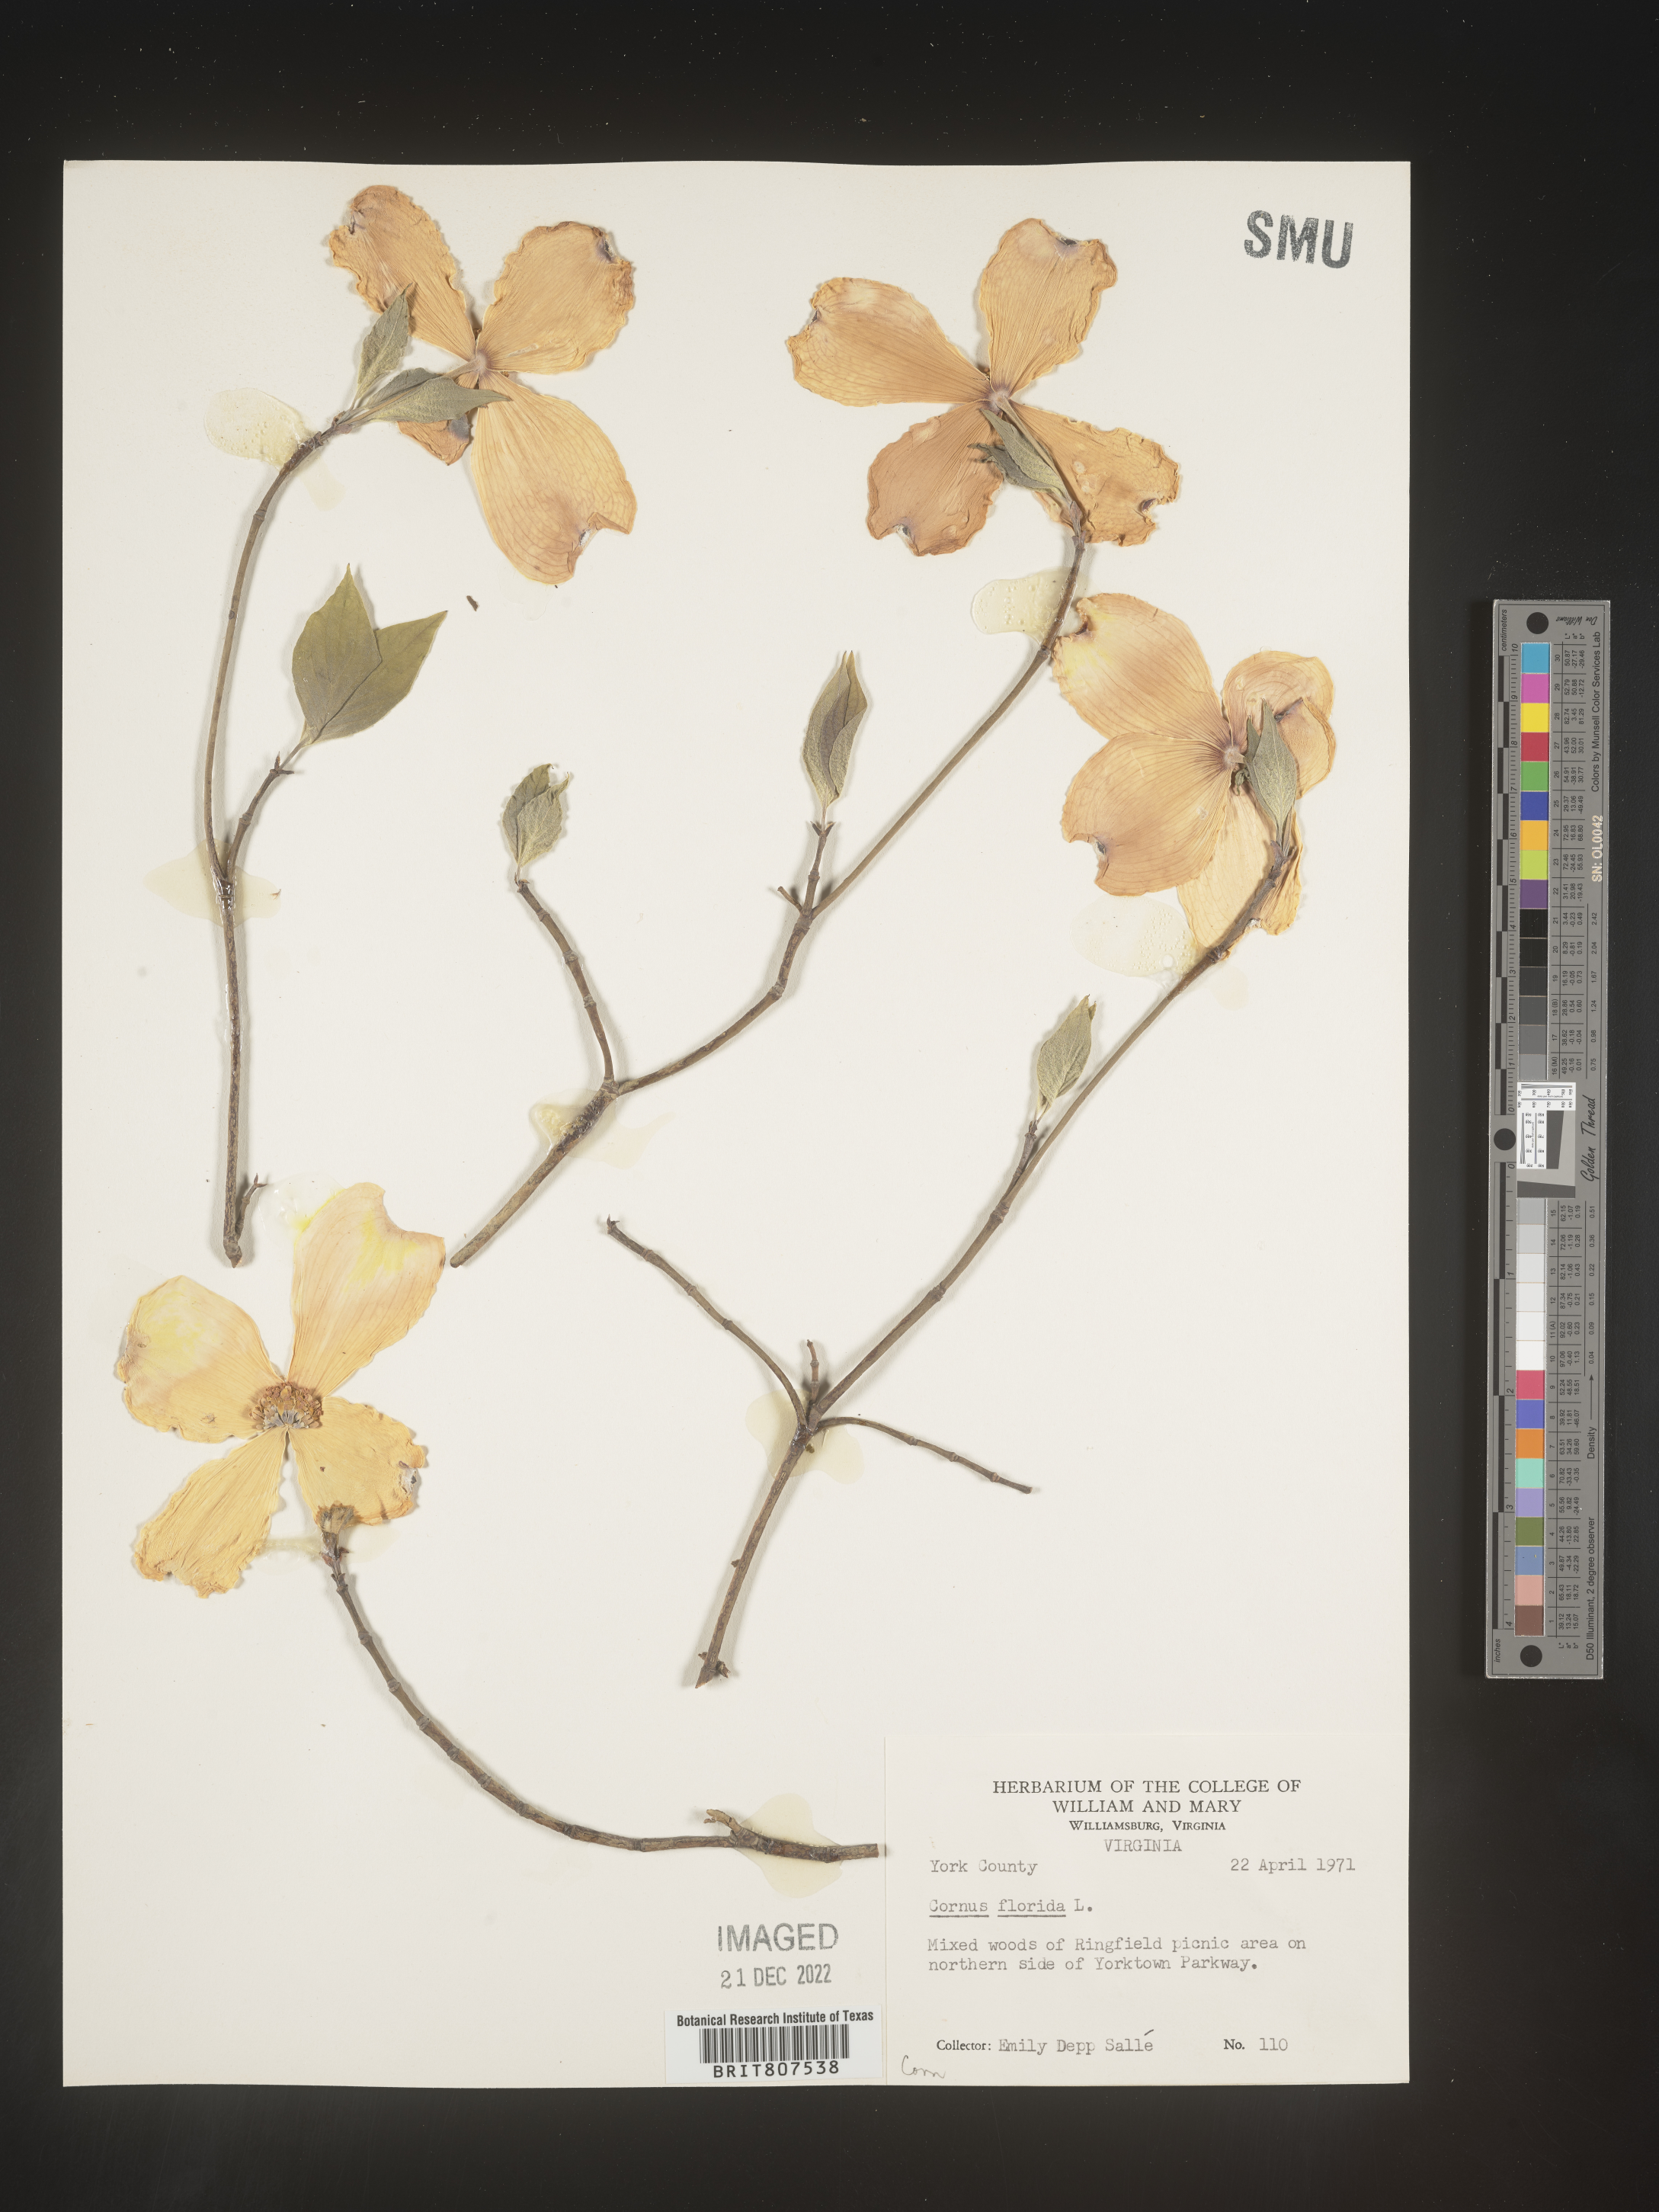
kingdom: Plantae
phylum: Tracheophyta
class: Magnoliopsida
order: Cornales
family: Cornaceae
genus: Cornus
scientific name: Cornus florida
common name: Flowering dogwood
